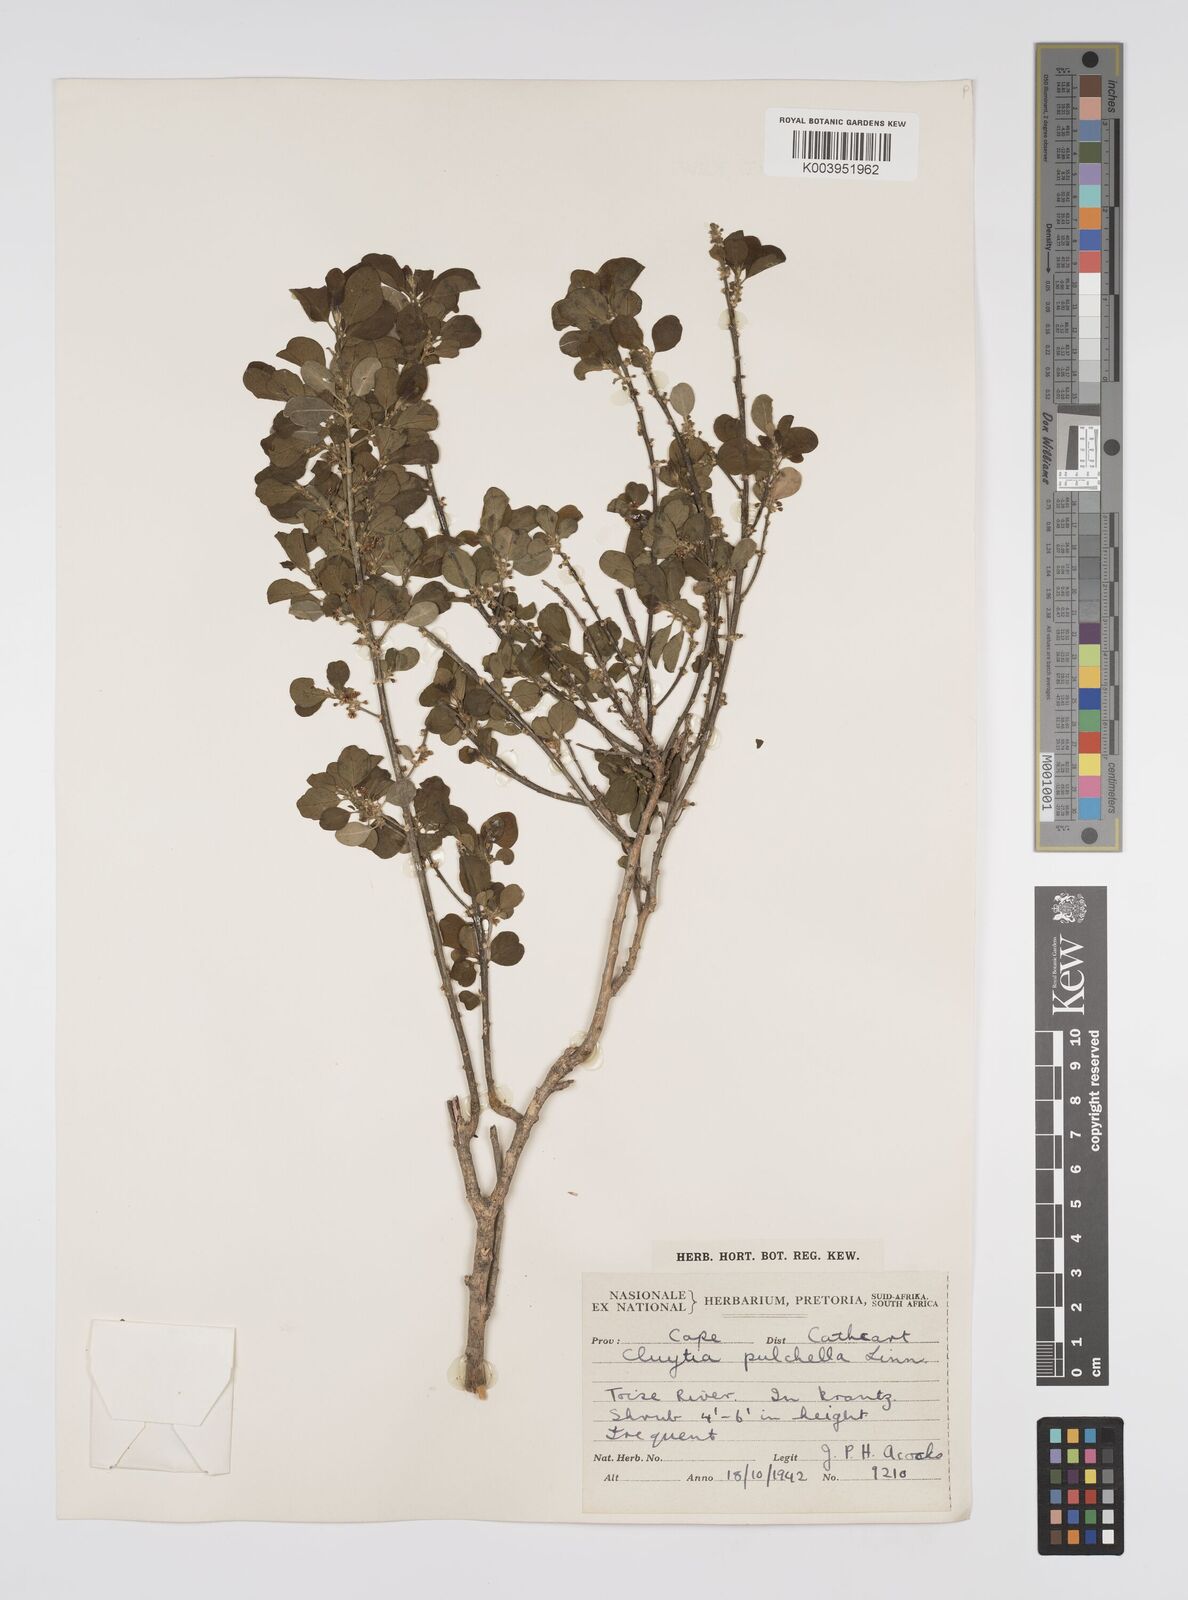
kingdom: Plantae
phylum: Tracheophyta
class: Magnoliopsida
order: Malpighiales
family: Peraceae
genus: Clutia
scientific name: Clutia pulchella
